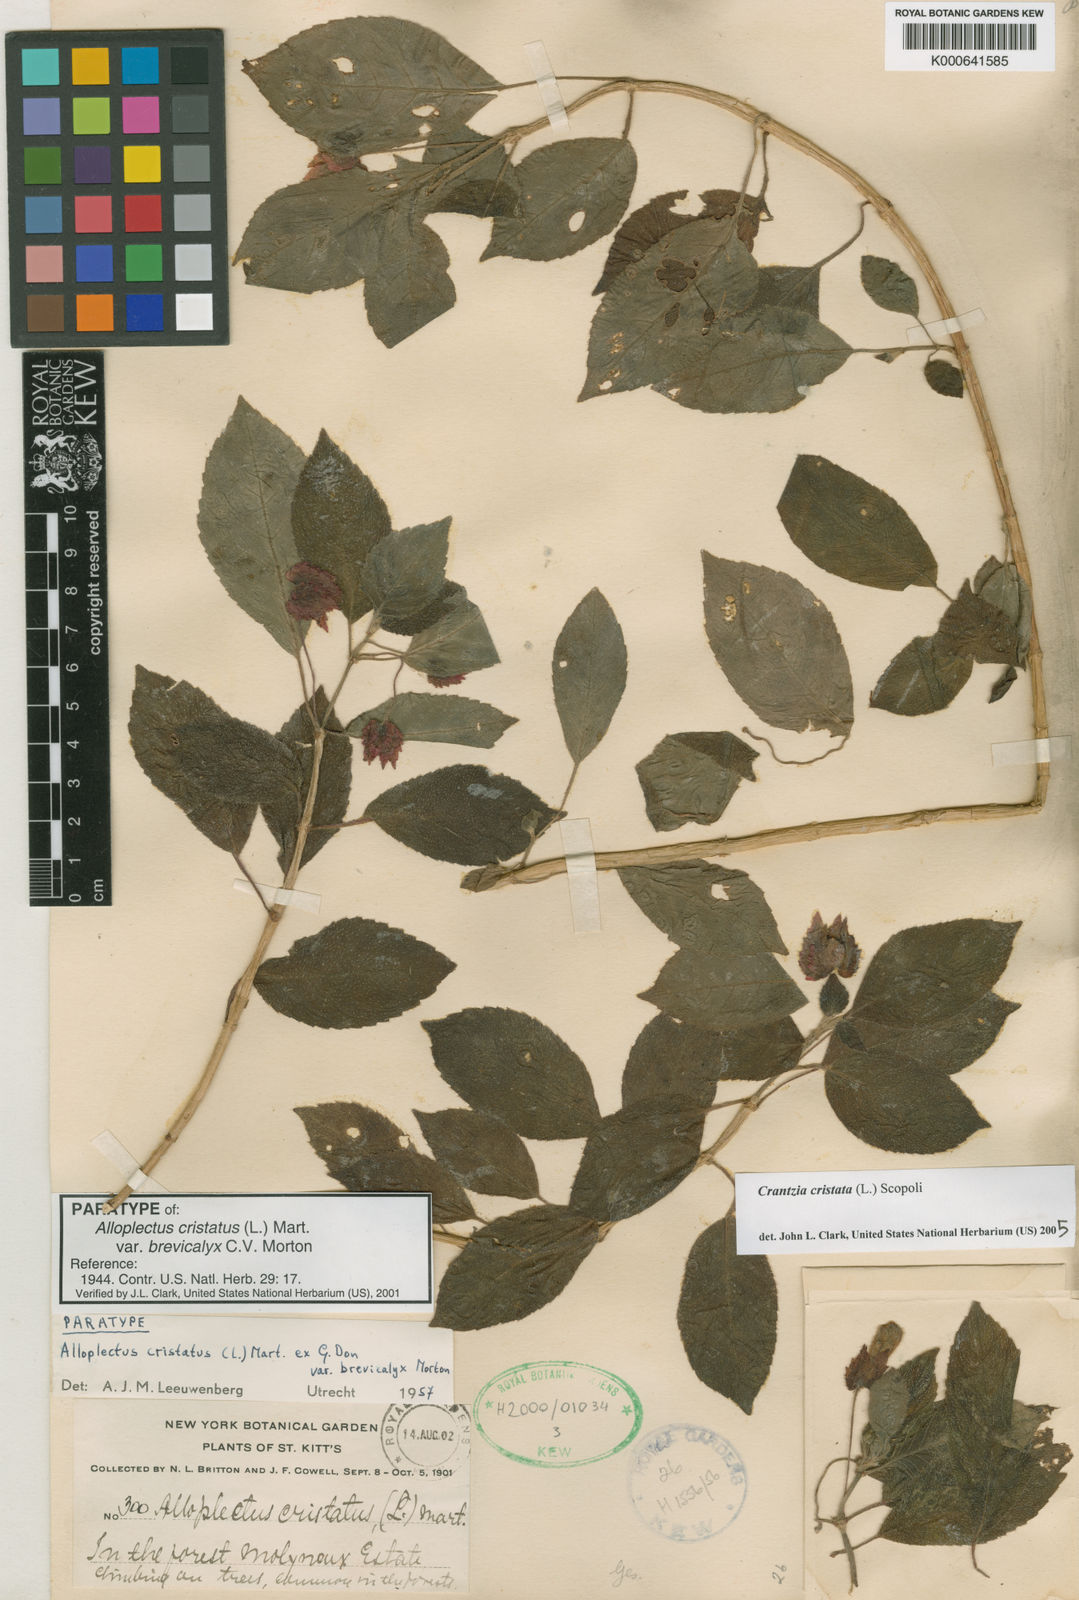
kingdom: Plantae
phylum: Tracheophyta
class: Magnoliopsida
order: Lamiales
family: Gesneriaceae
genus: Alloplectus
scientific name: Alloplectus
